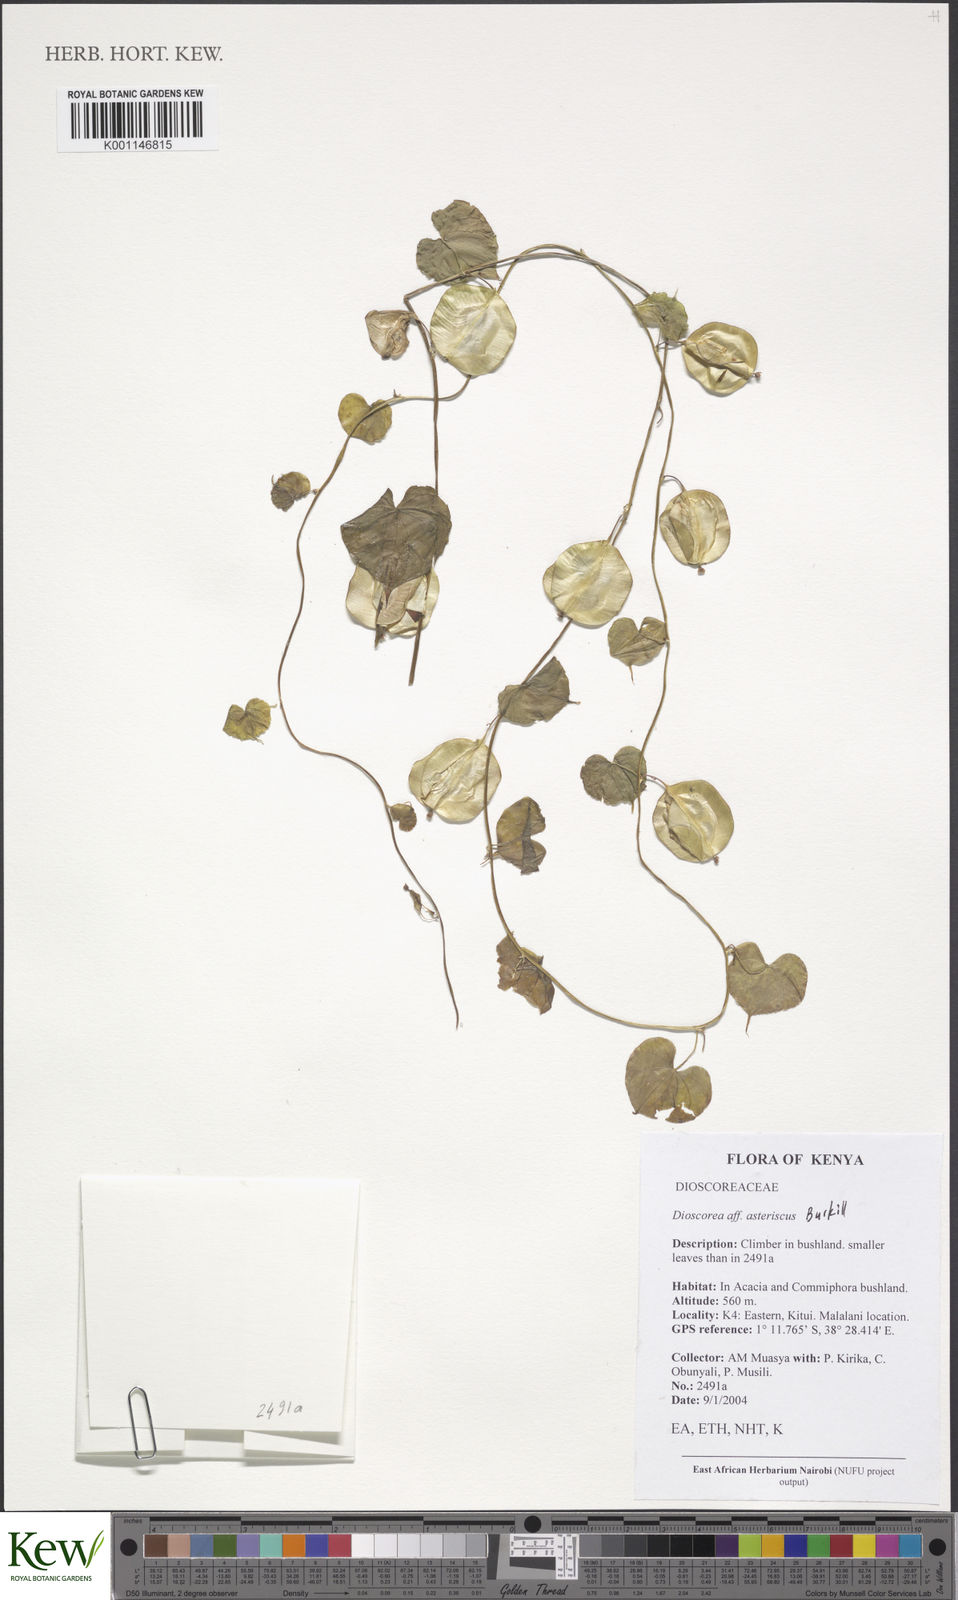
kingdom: Plantae
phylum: Tracheophyta
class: Liliopsida
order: Dioscoreales
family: Dioscoreaceae
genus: Dioscorea
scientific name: Dioscorea asteriscus
